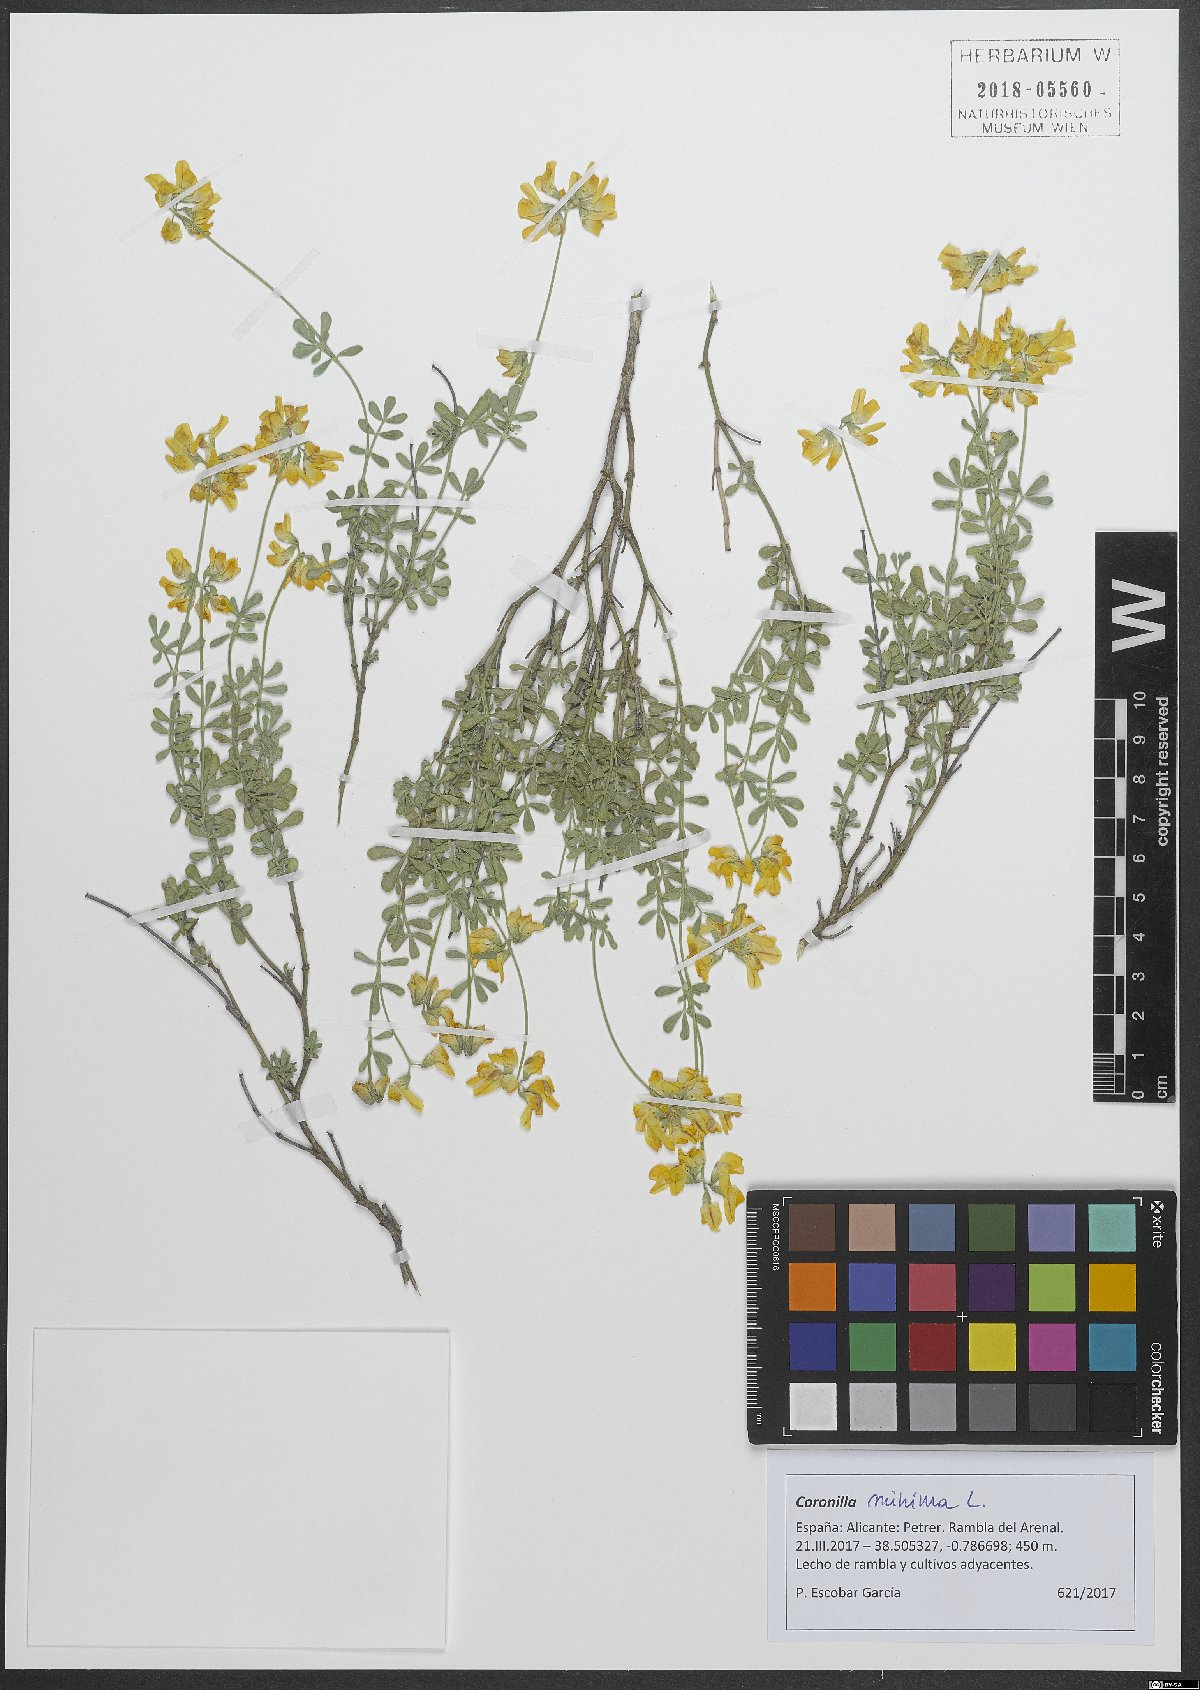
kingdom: Plantae
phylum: Tracheophyta
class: Magnoliopsida
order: Fabales
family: Fabaceae
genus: Coronilla
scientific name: Coronilla minima
